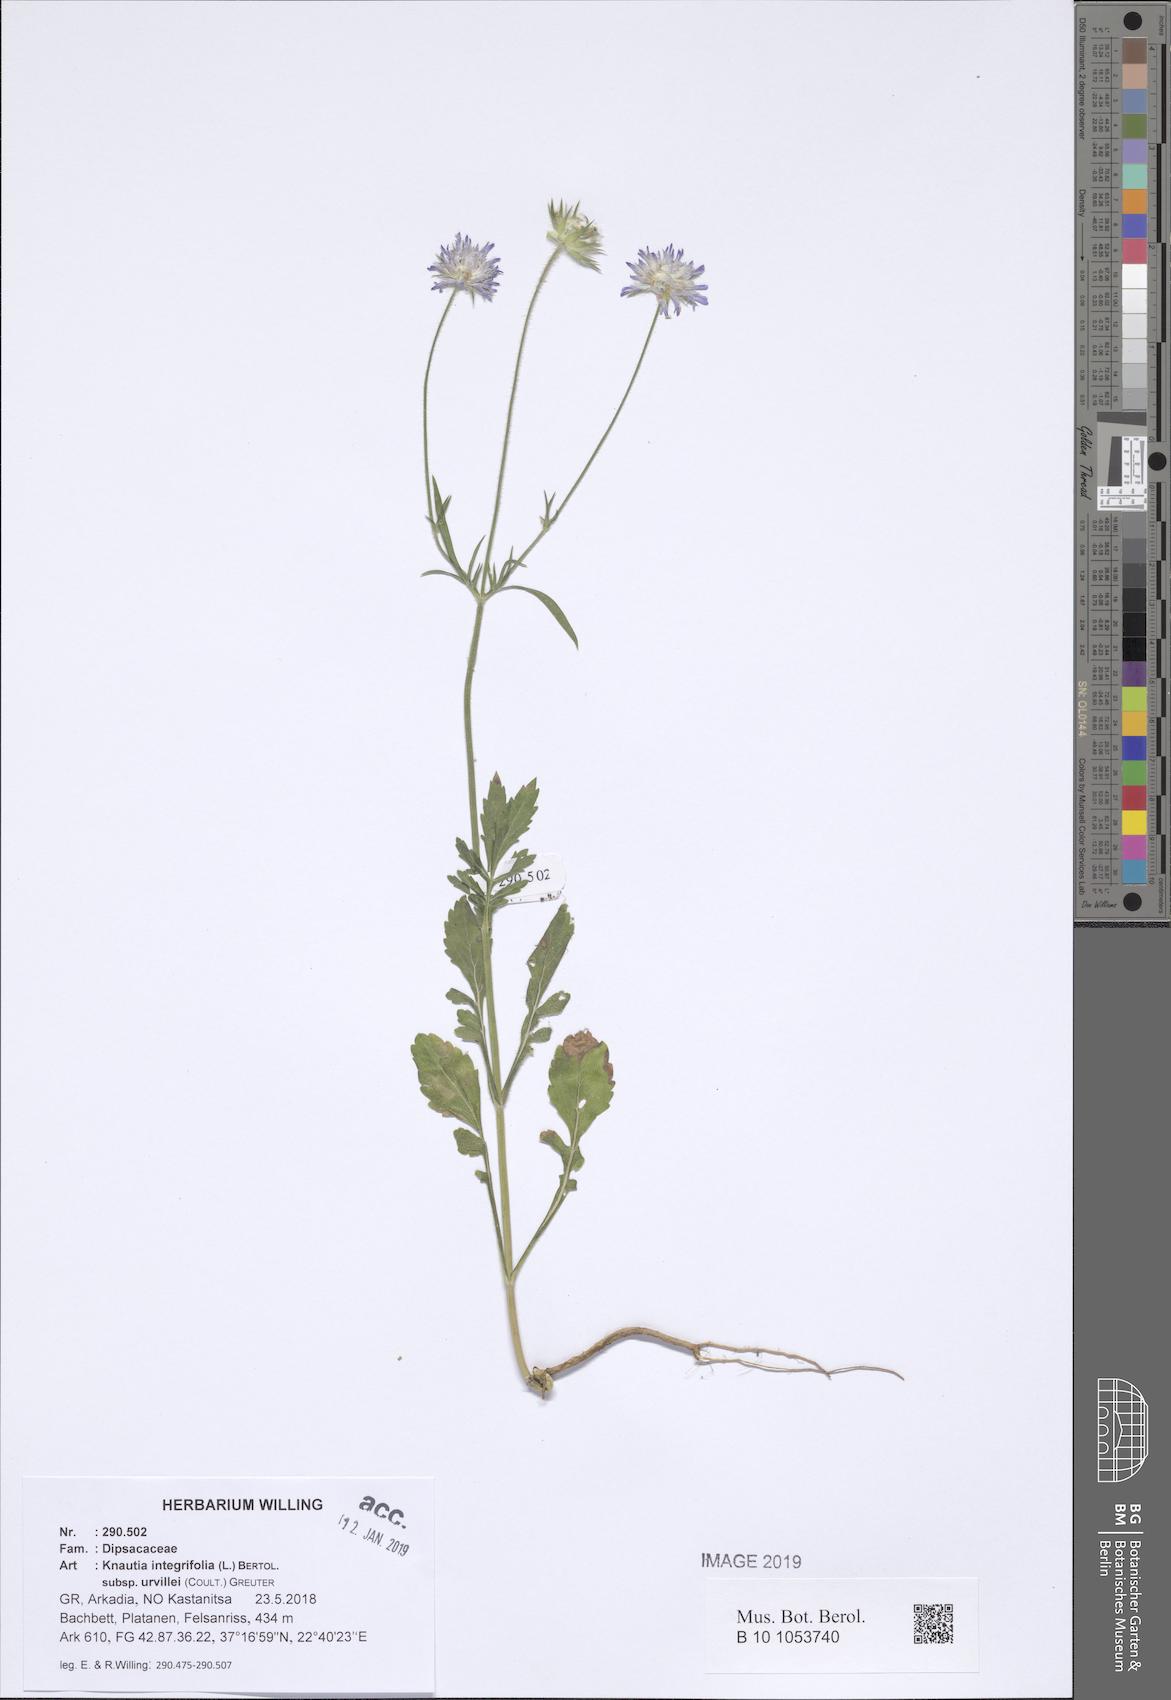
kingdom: Plantae
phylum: Tracheophyta
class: Magnoliopsida
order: Dipsacales
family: Caprifoliaceae
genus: Knautia
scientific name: Knautia integrifolia
